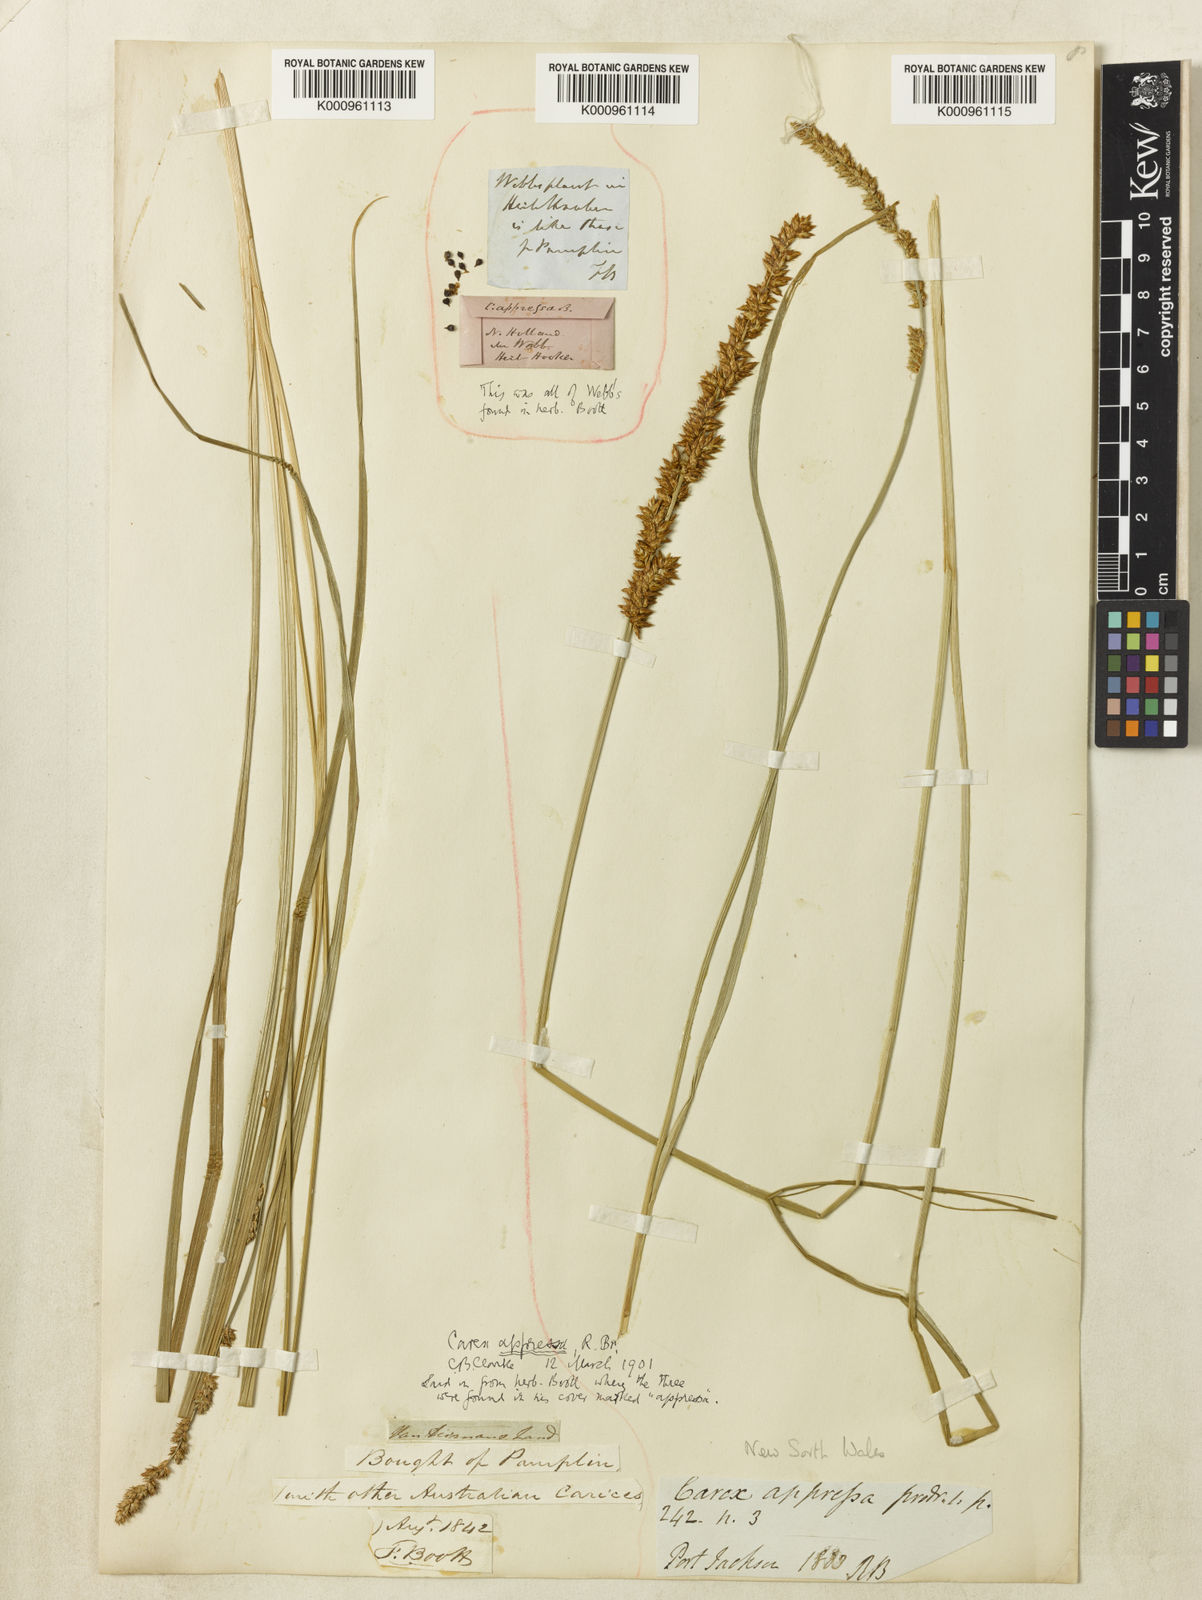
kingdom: Plantae
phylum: Tracheophyta
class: Liliopsida
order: Poales
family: Cyperaceae
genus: Carex
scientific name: Carex appressa
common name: Tussock sedge
